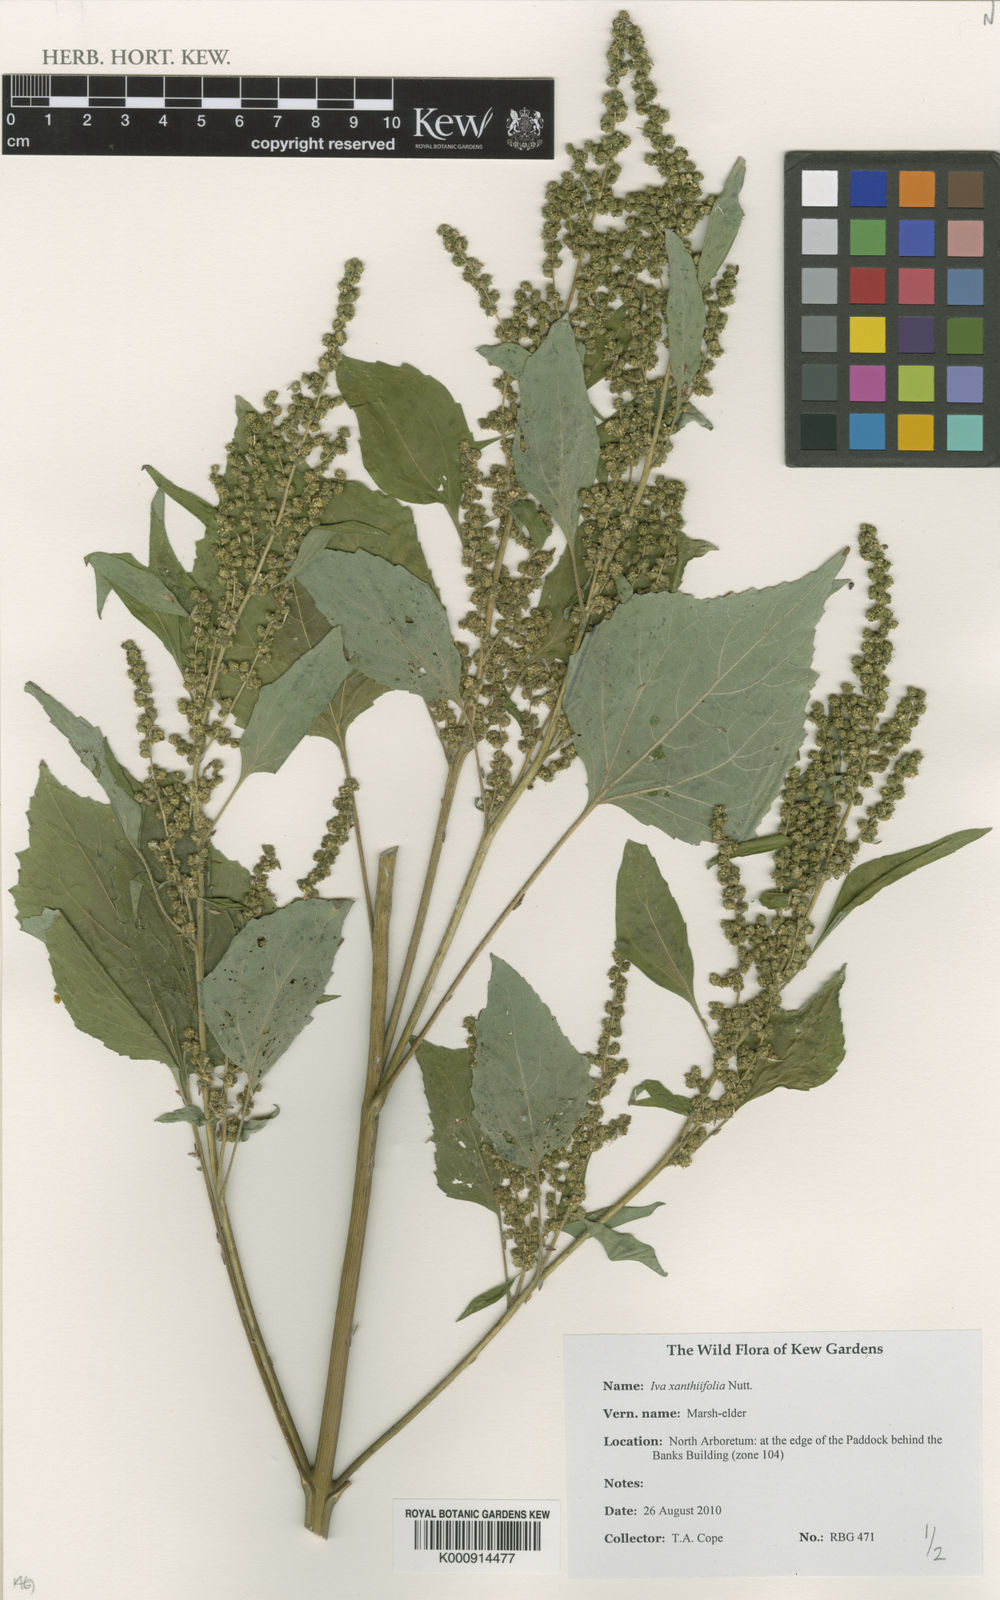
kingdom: Plantae
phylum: Tracheophyta
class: Magnoliopsida
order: Asterales
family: Asteraceae
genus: Cyclachaena
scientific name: Cyclachaena xanthiifolia
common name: Giant sumpweed
